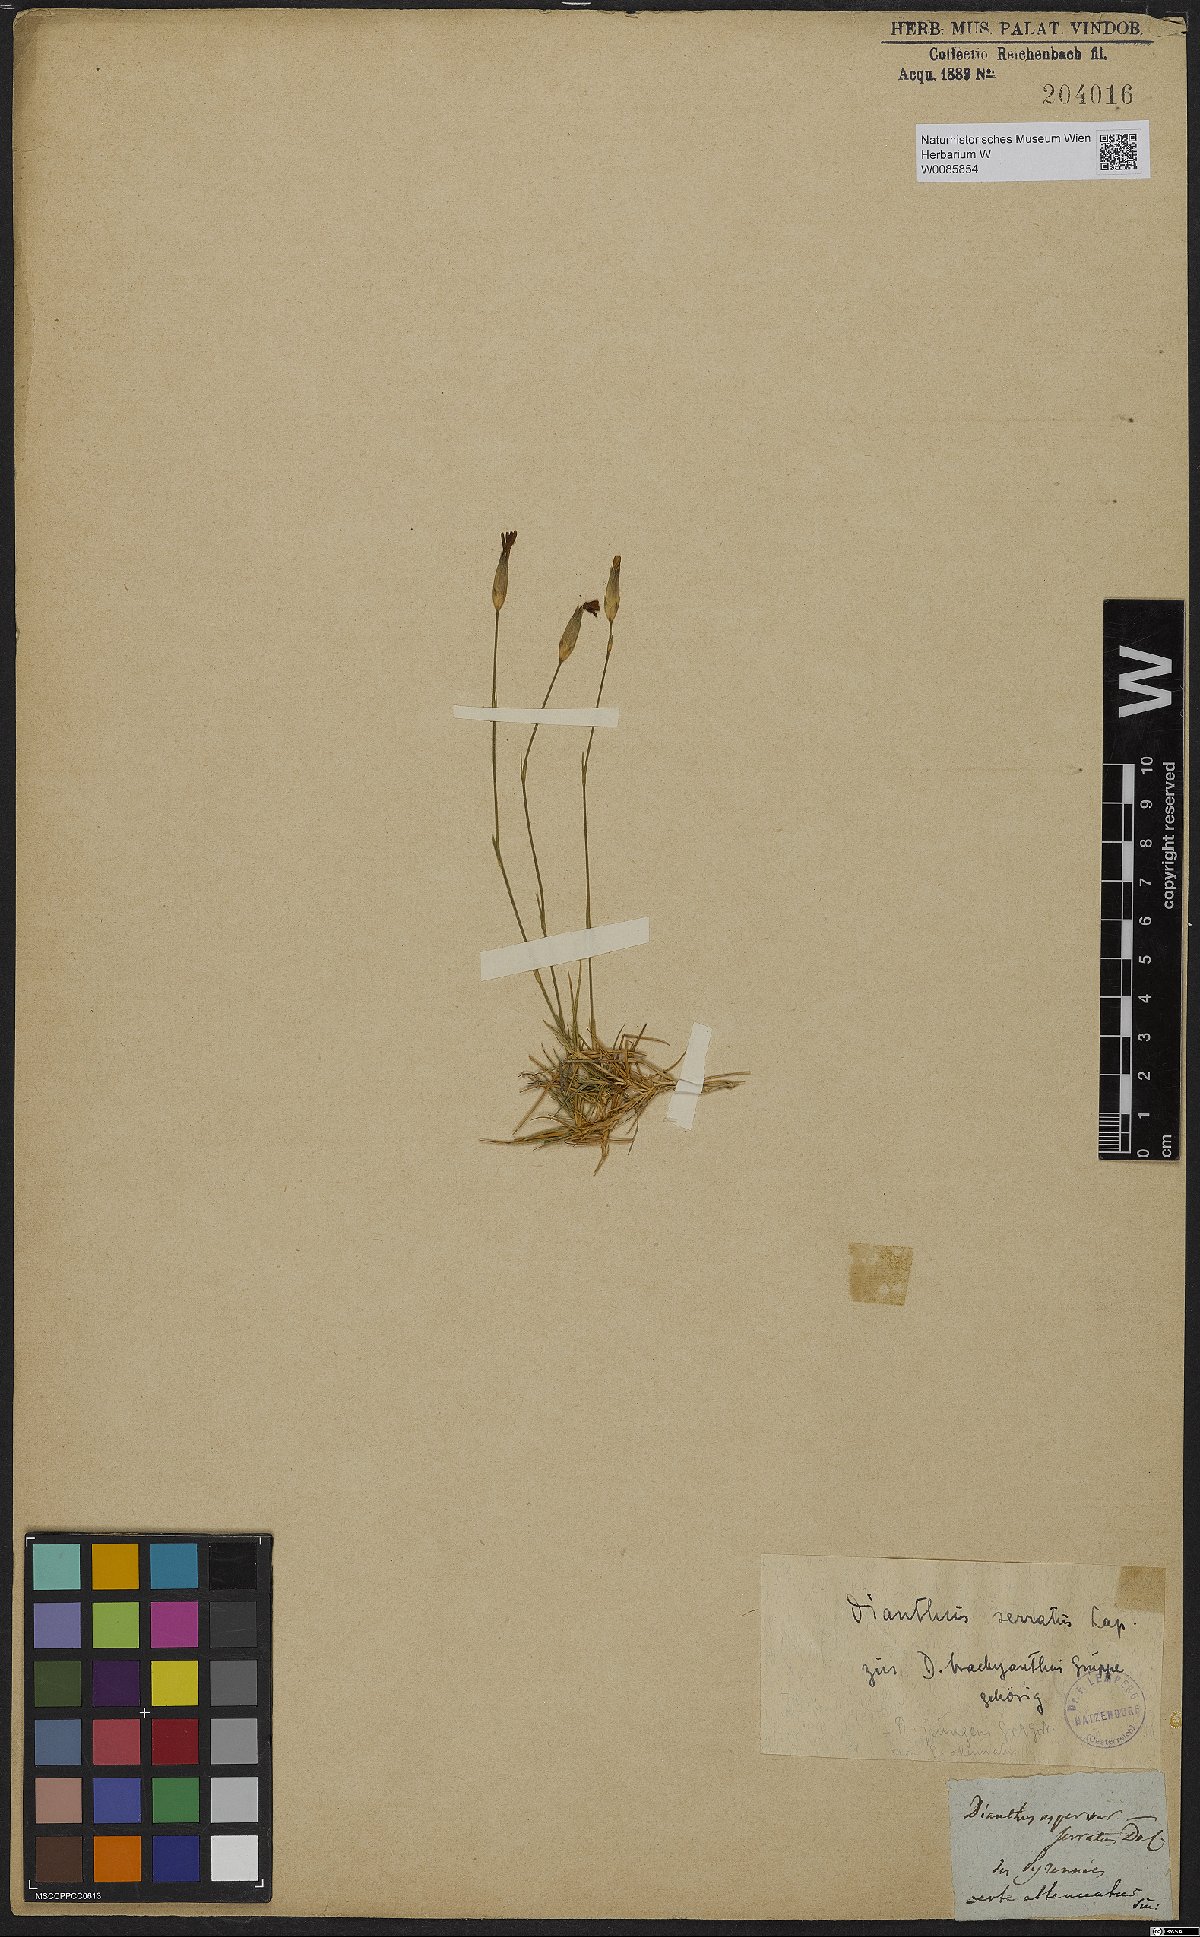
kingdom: Plantae
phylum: Tracheophyta
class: Magnoliopsida
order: Caryophyllales
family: Caryophyllaceae
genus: Dianthus
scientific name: Dianthus pungens
